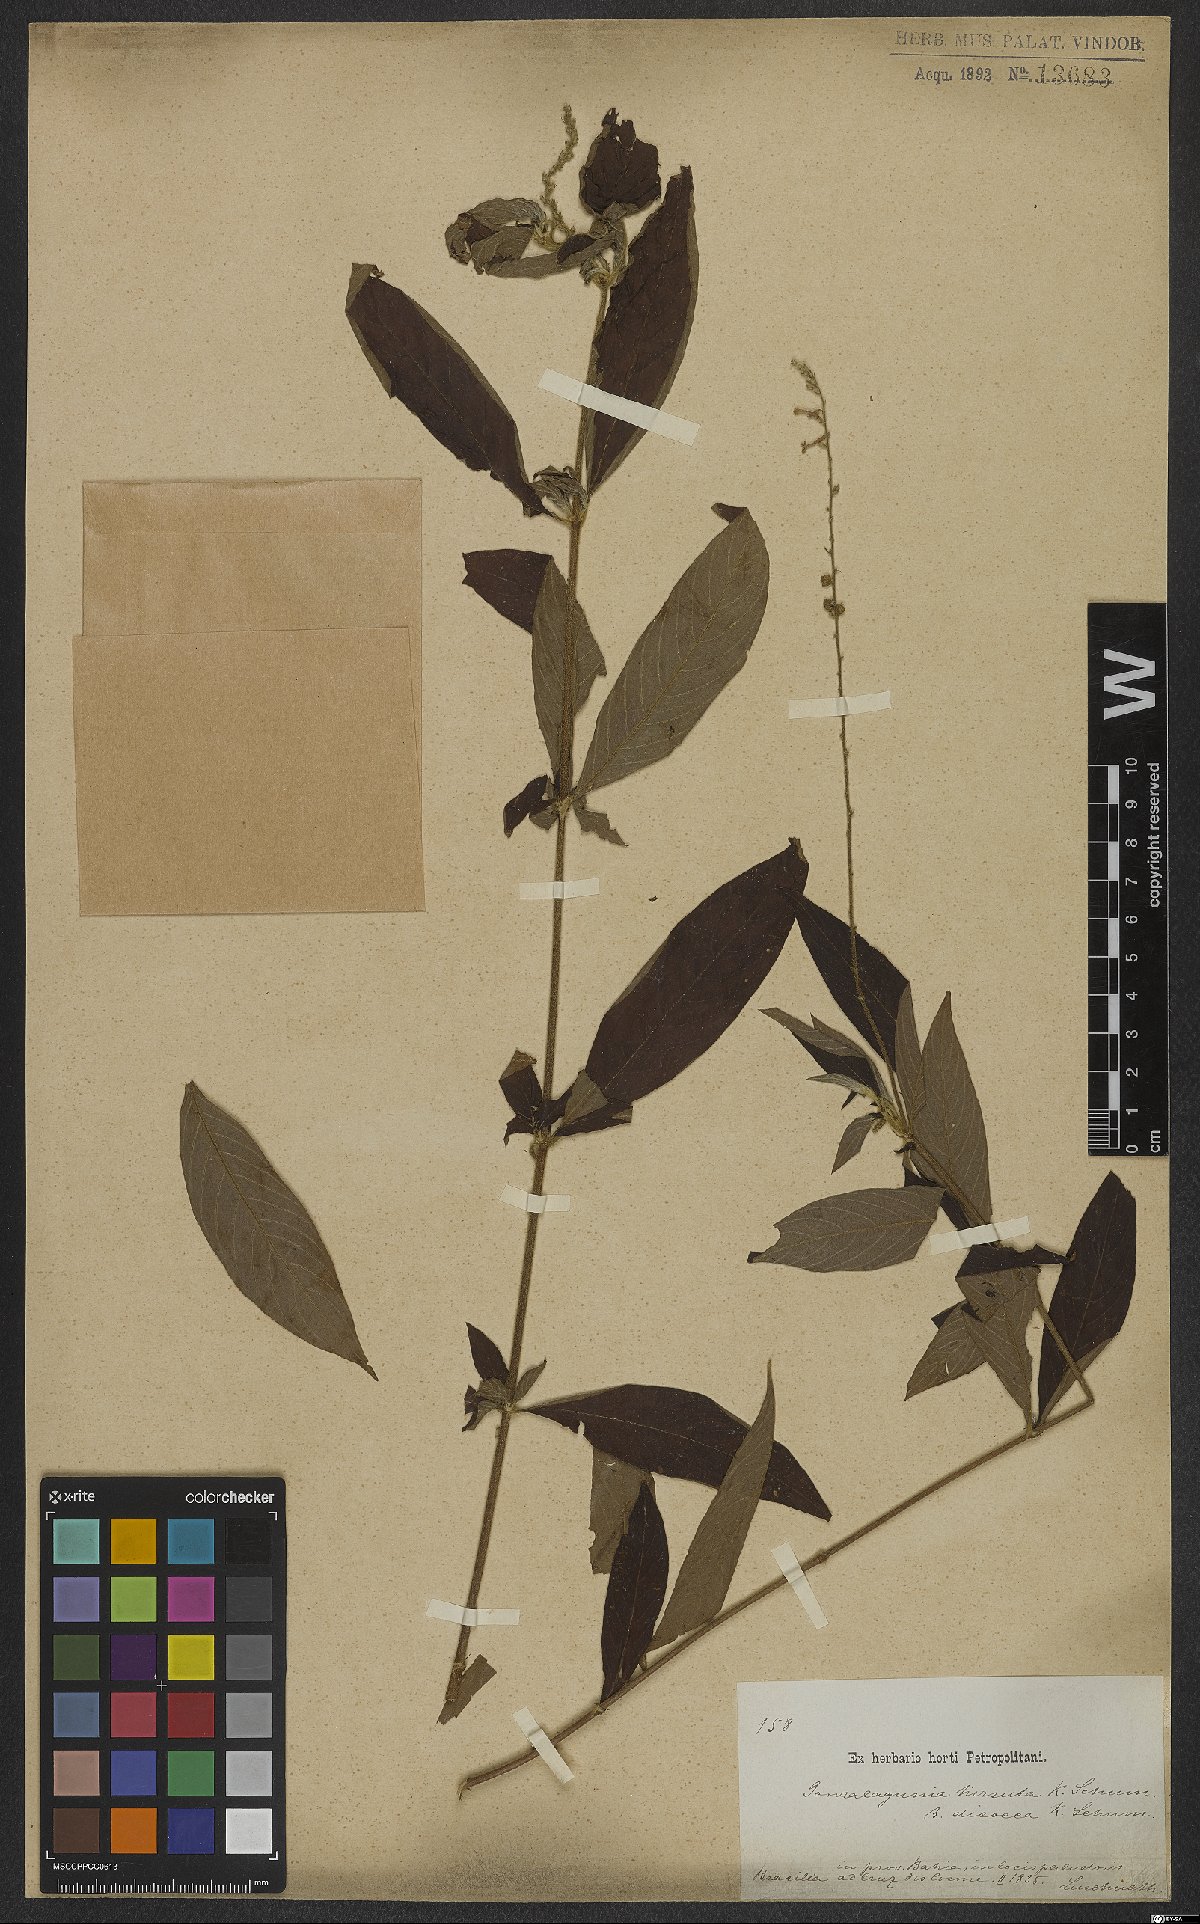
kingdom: Plantae
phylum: Tracheophyta
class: Magnoliopsida
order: Gentianales
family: Rubiaceae
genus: Gonzalagunia
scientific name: Gonzalagunia hirsuta
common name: Mata de mariposa
